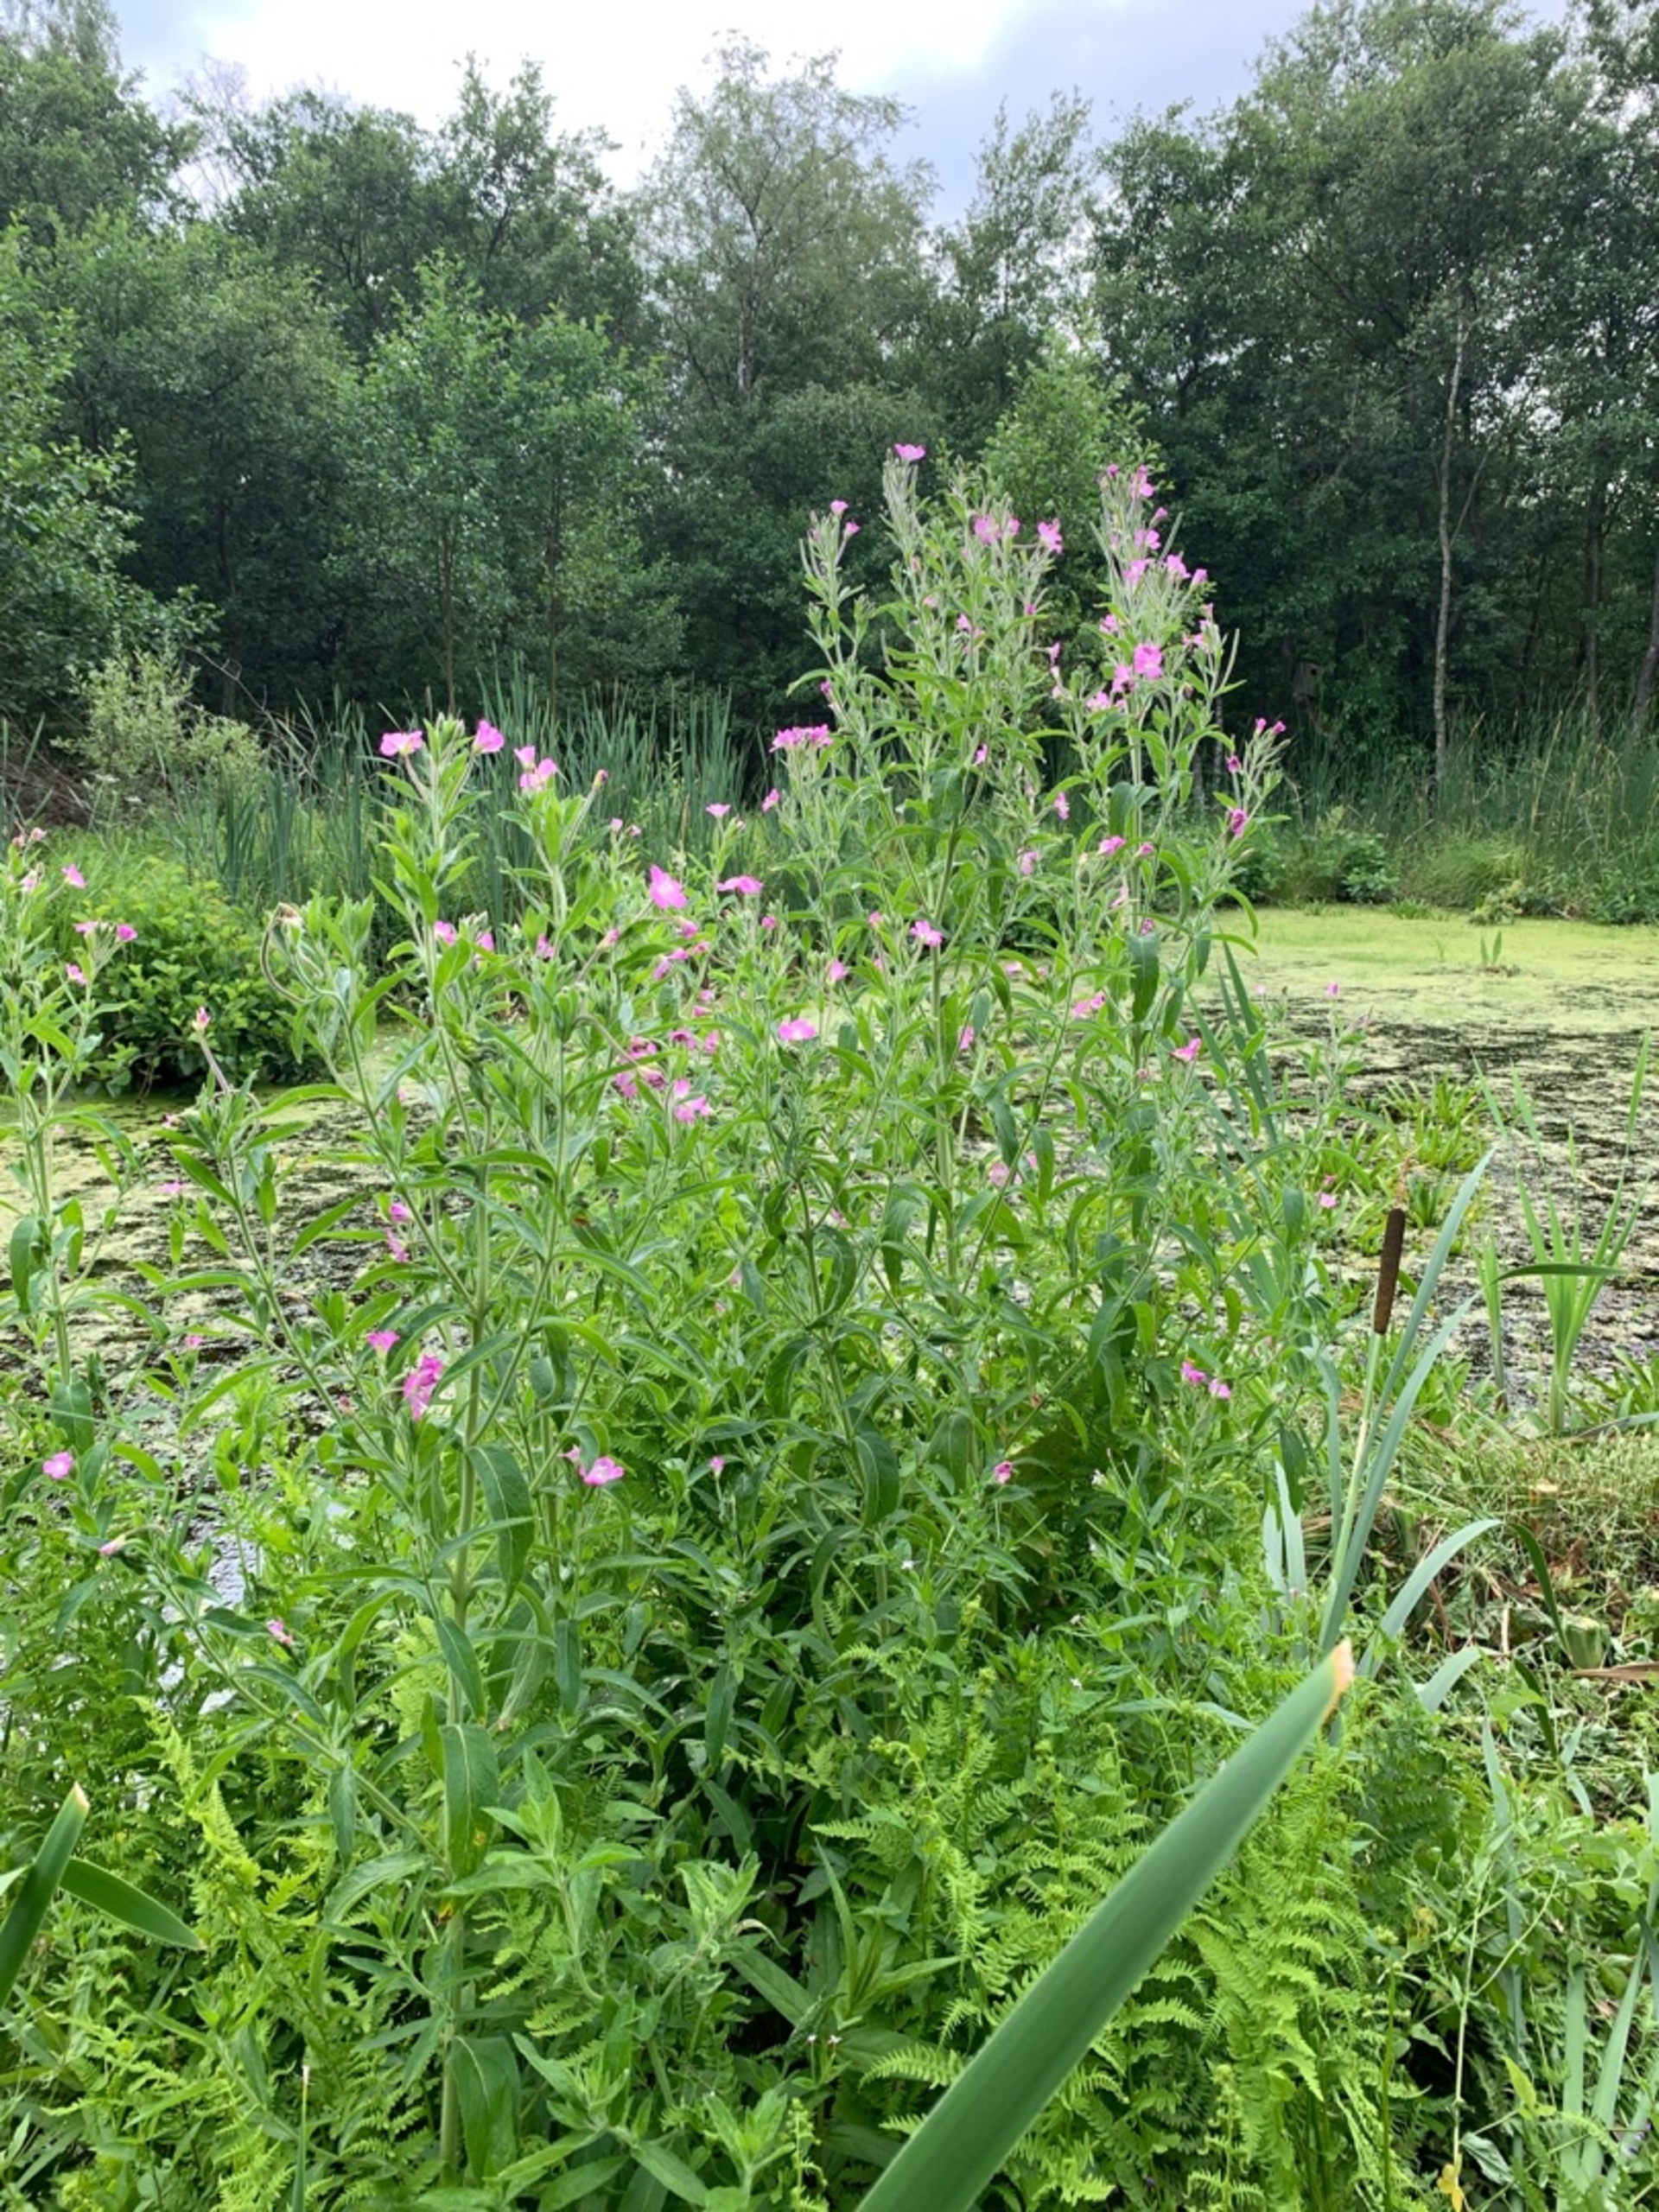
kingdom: Plantae
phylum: Tracheophyta
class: Magnoliopsida
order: Myrtales
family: Onagraceae
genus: Epilobium
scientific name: Epilobium hirsutum
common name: Lådden dueurt
